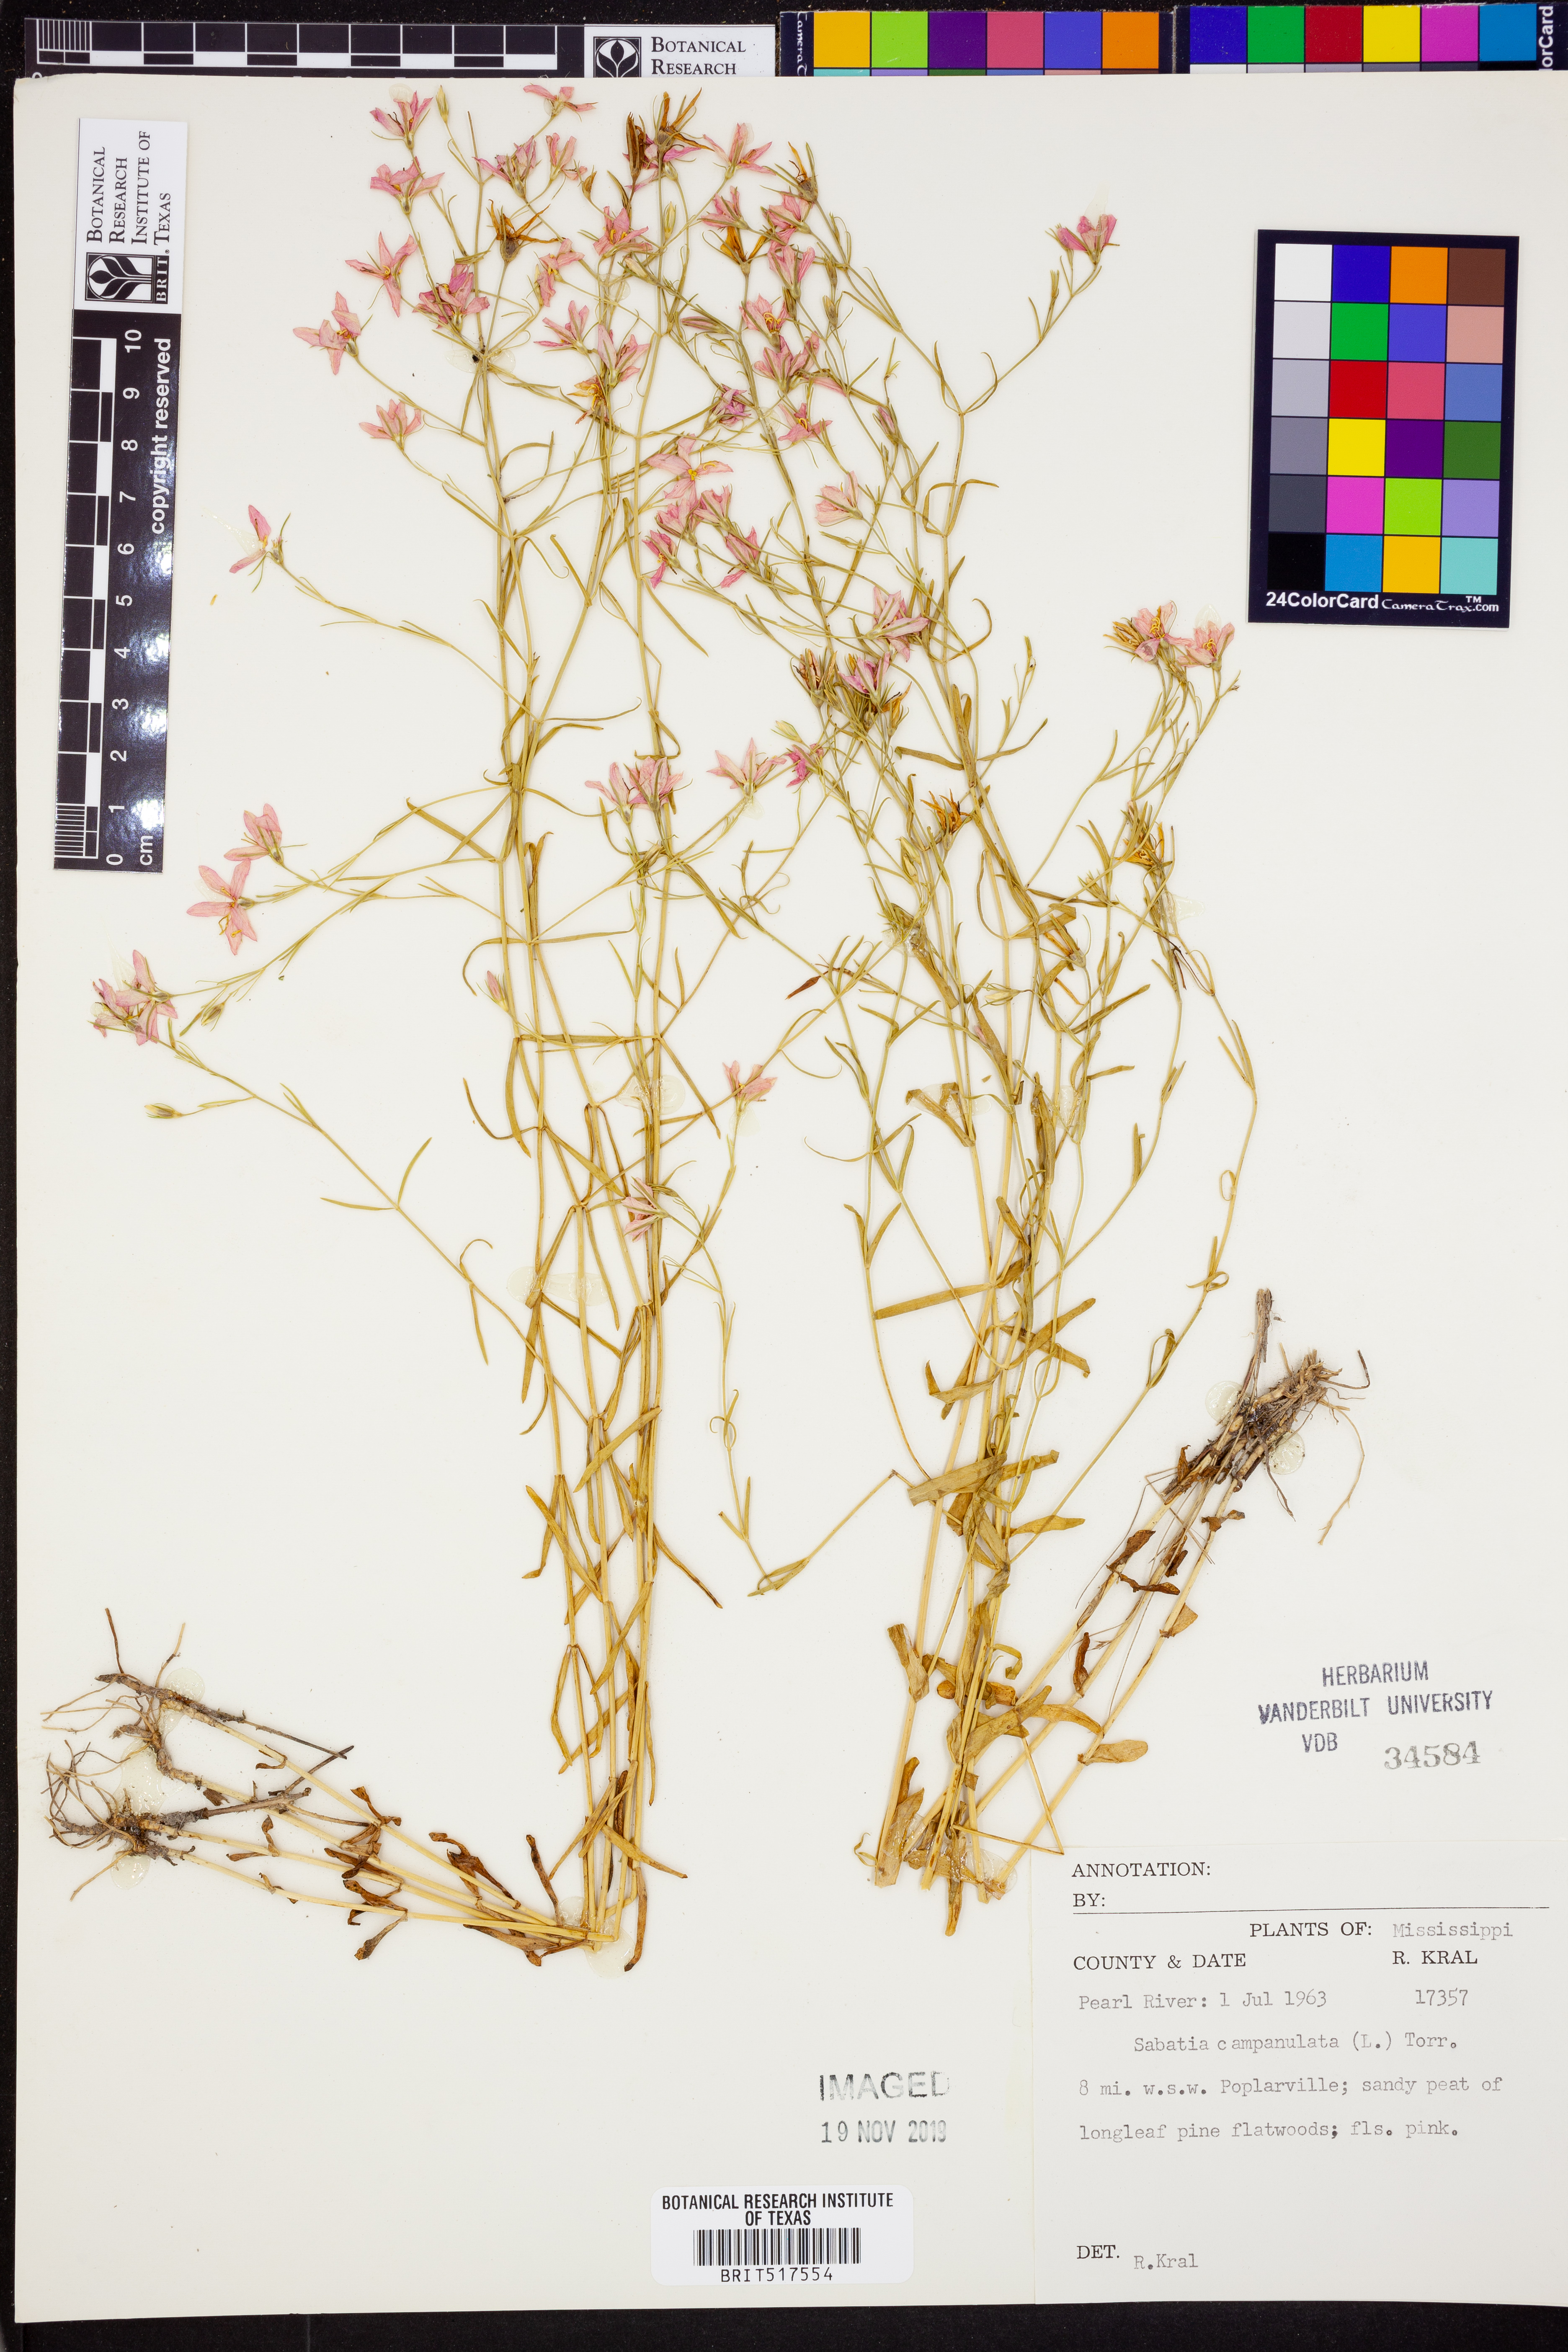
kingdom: Plantae
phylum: Tracheophyta
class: Magnoliopsida
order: Gentianales
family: Gentianaceae
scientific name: Gentianaceae
